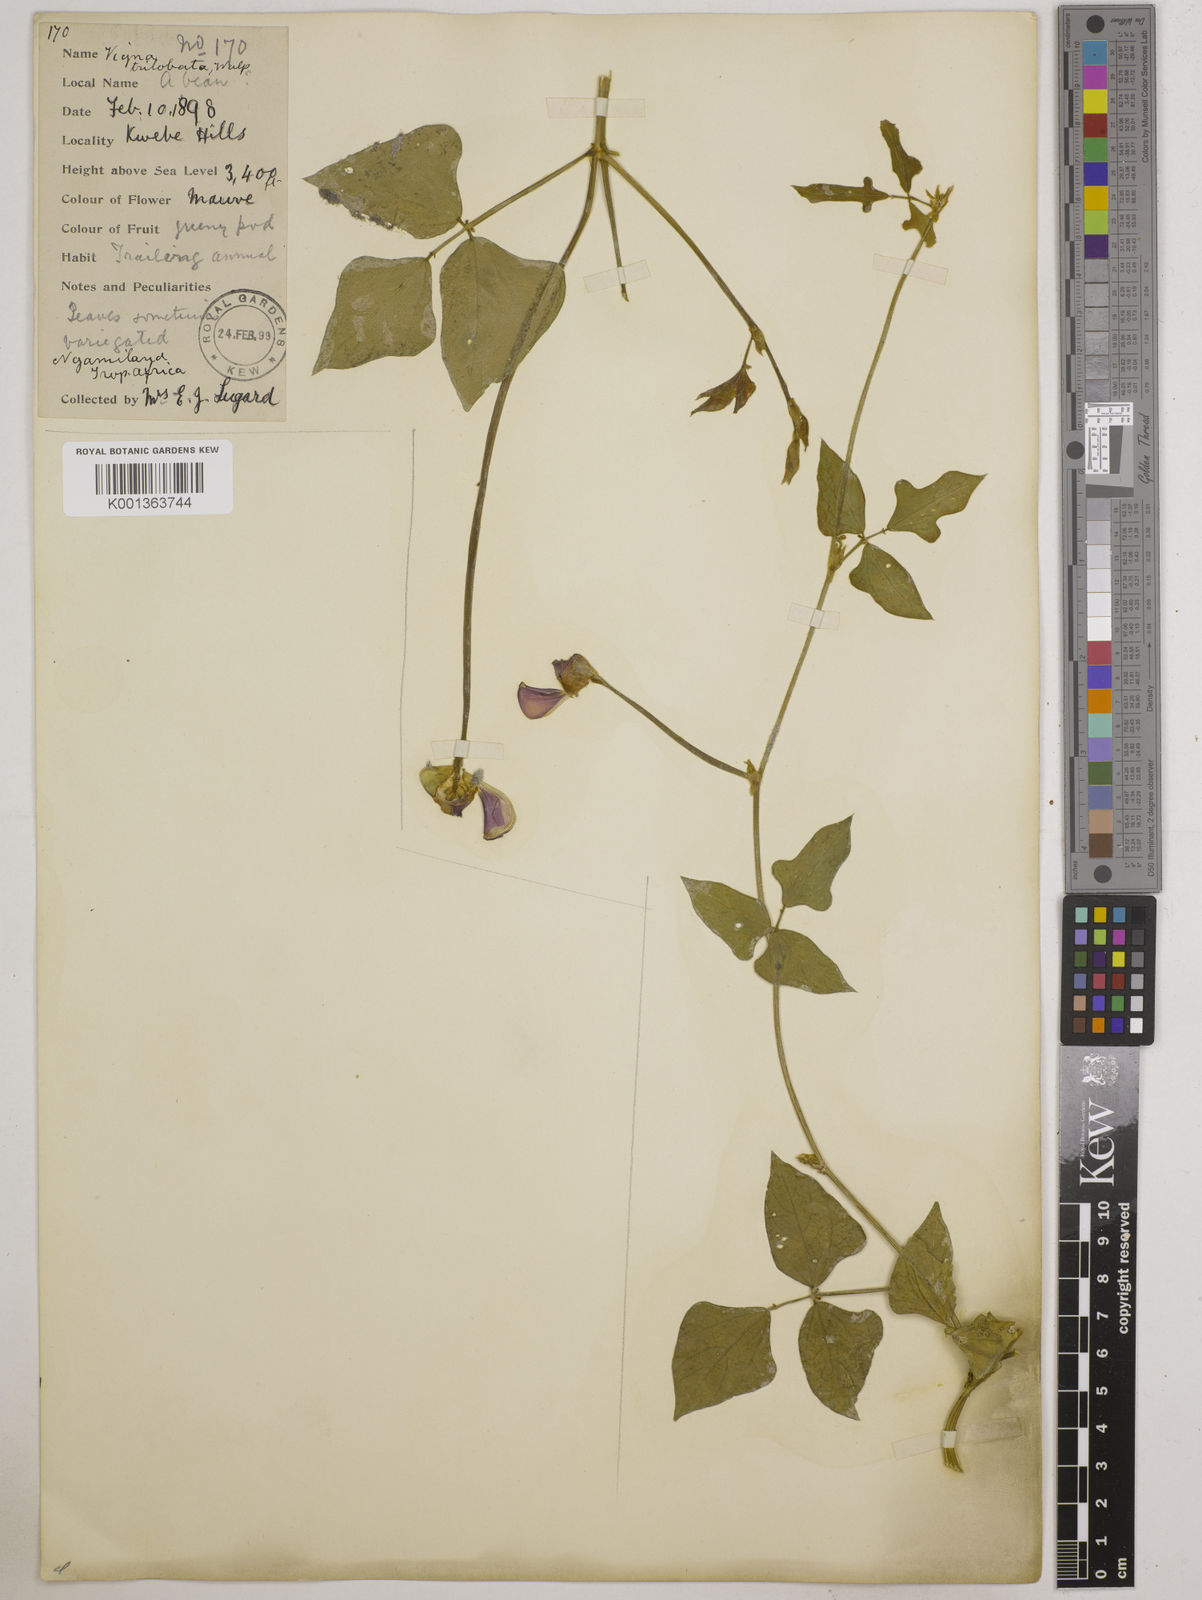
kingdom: Plantae
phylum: Tracheophyta
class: Magnoliopsida
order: Fabales
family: Fabaceae
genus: Vigna
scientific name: Vigna unguiculata
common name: Cowpea
